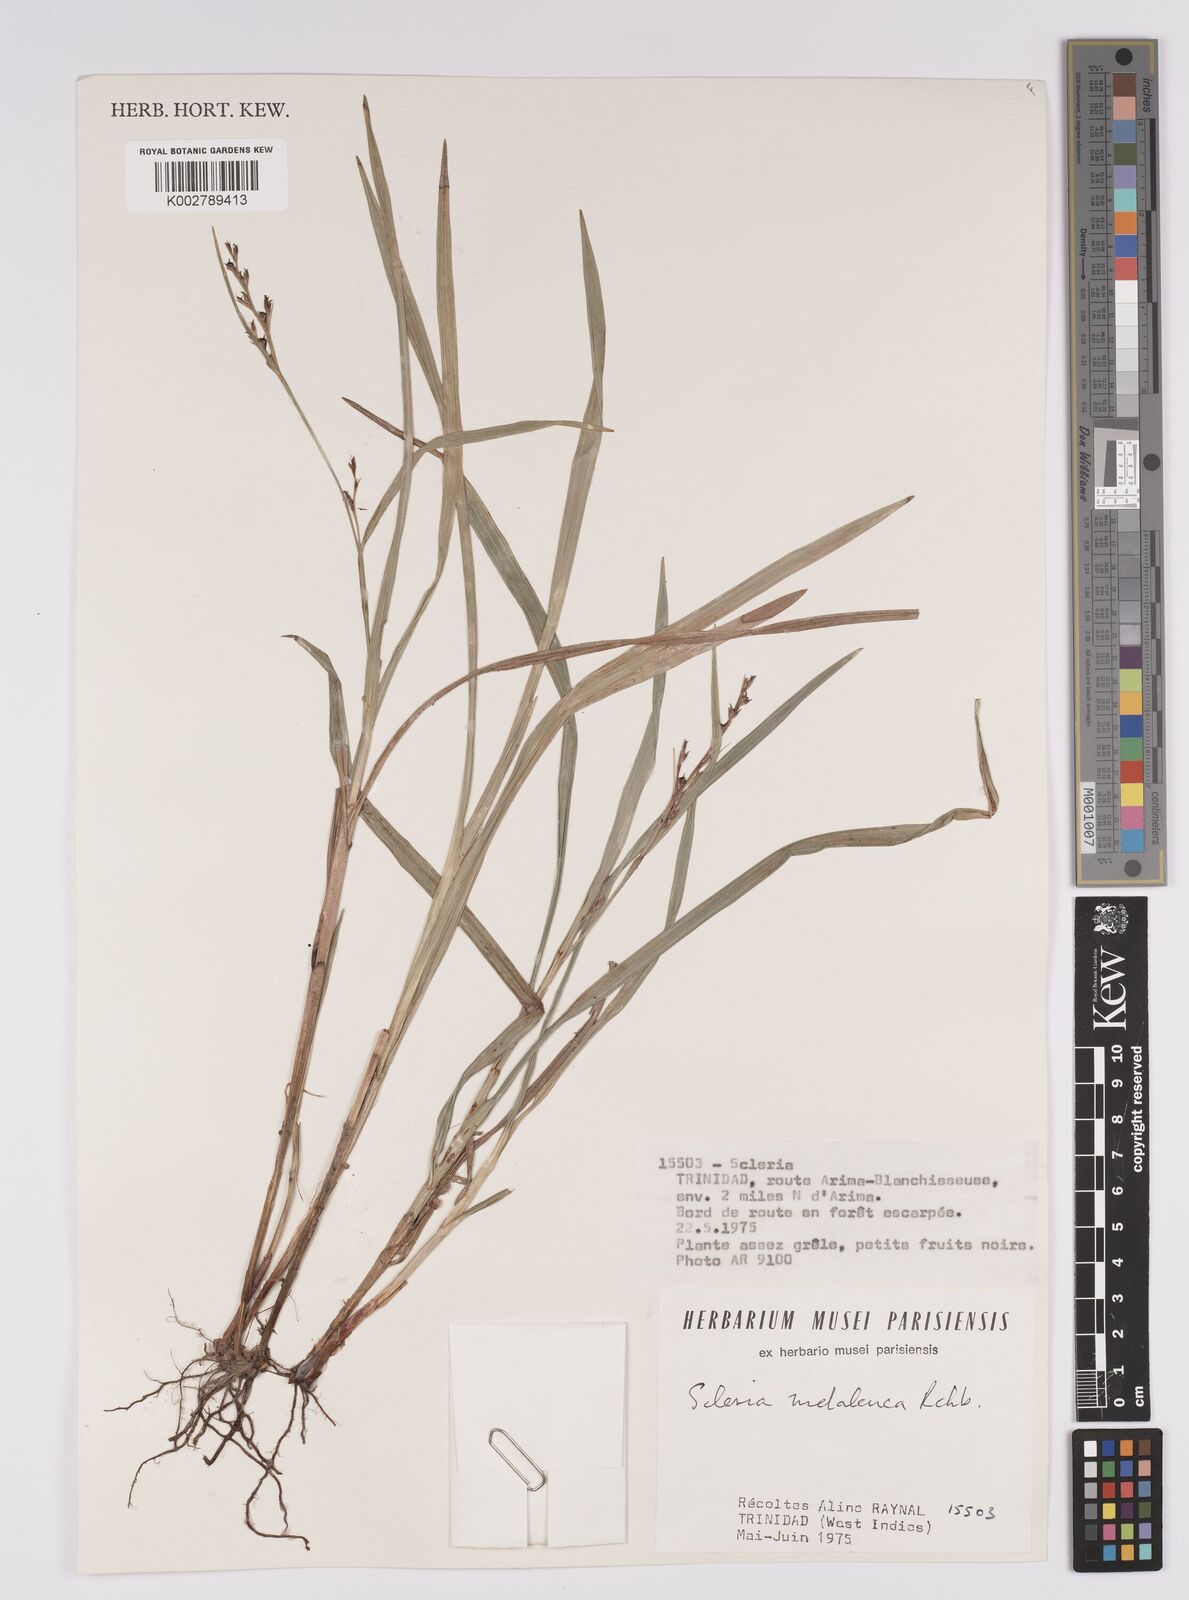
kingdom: Plantae
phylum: Tracheophyta
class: Liliopsida
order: Poales
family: Cyperaceae
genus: Scleria
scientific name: Scleria gaertneri
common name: Cortadera blanca
